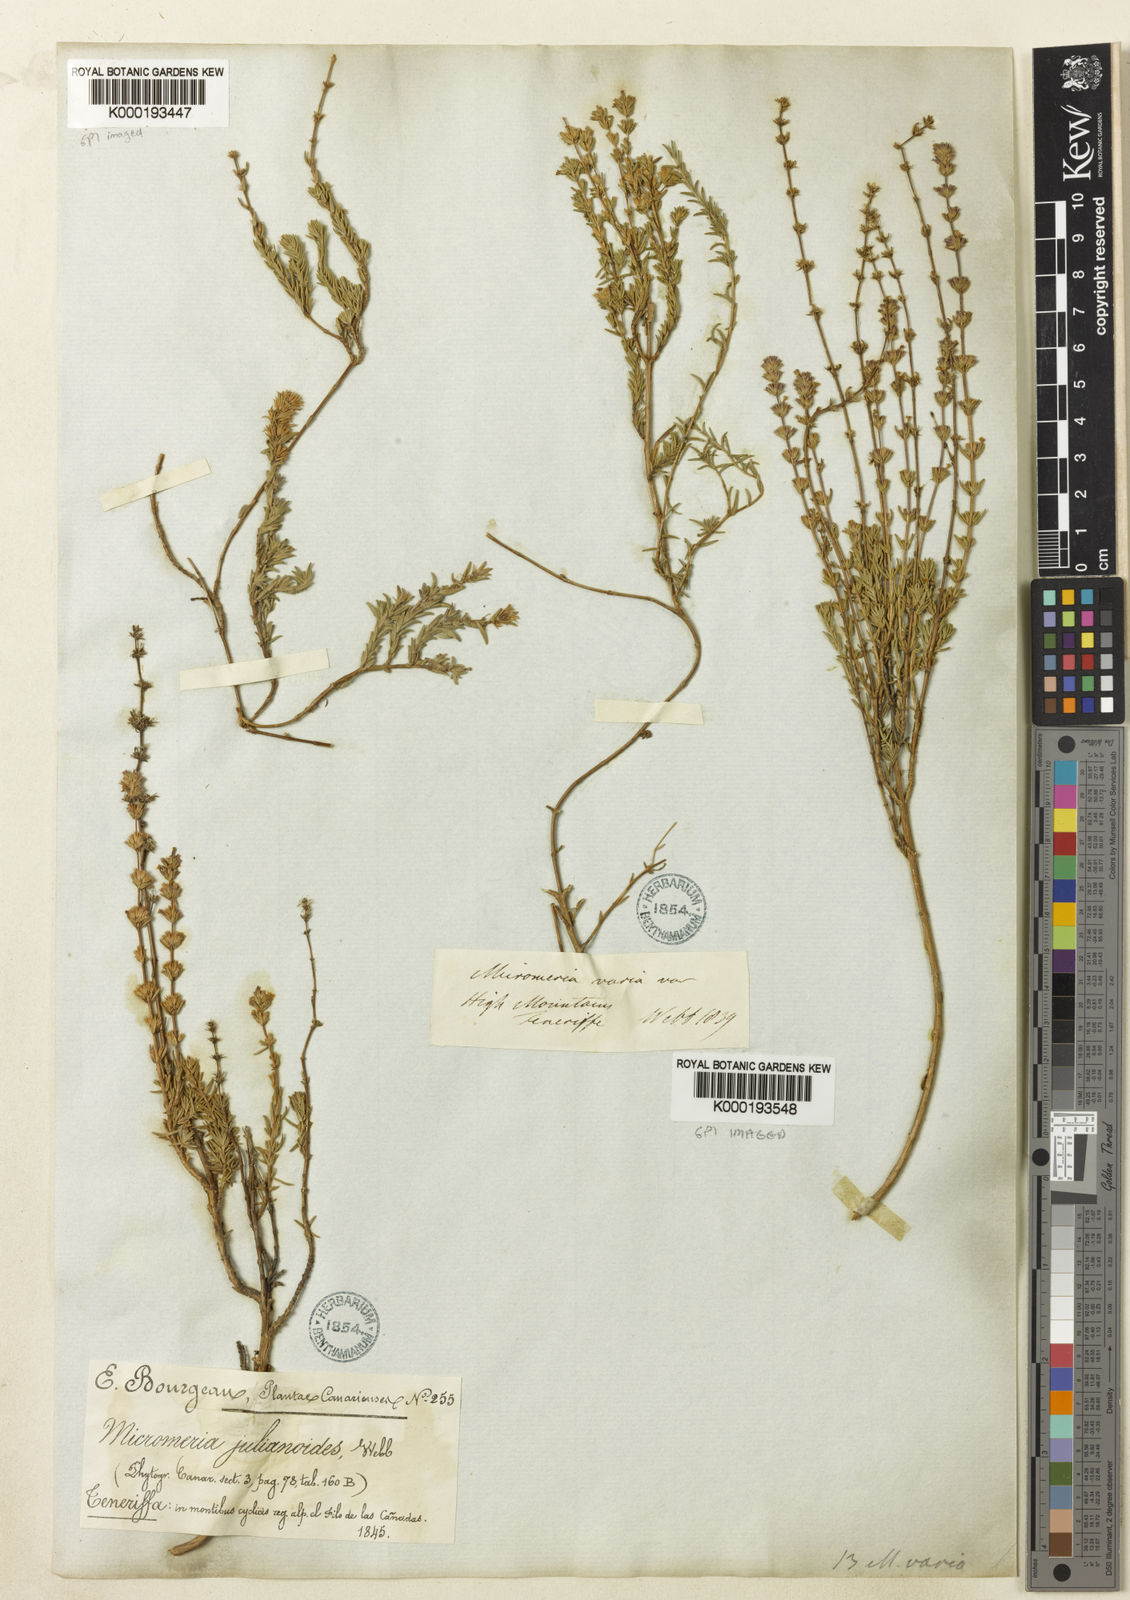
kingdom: Plantae
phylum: Tracheophyta
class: Magnoliopsida
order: Lamiales
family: Lamiaceae
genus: Micromeria
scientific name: Micromeria ericifolia
